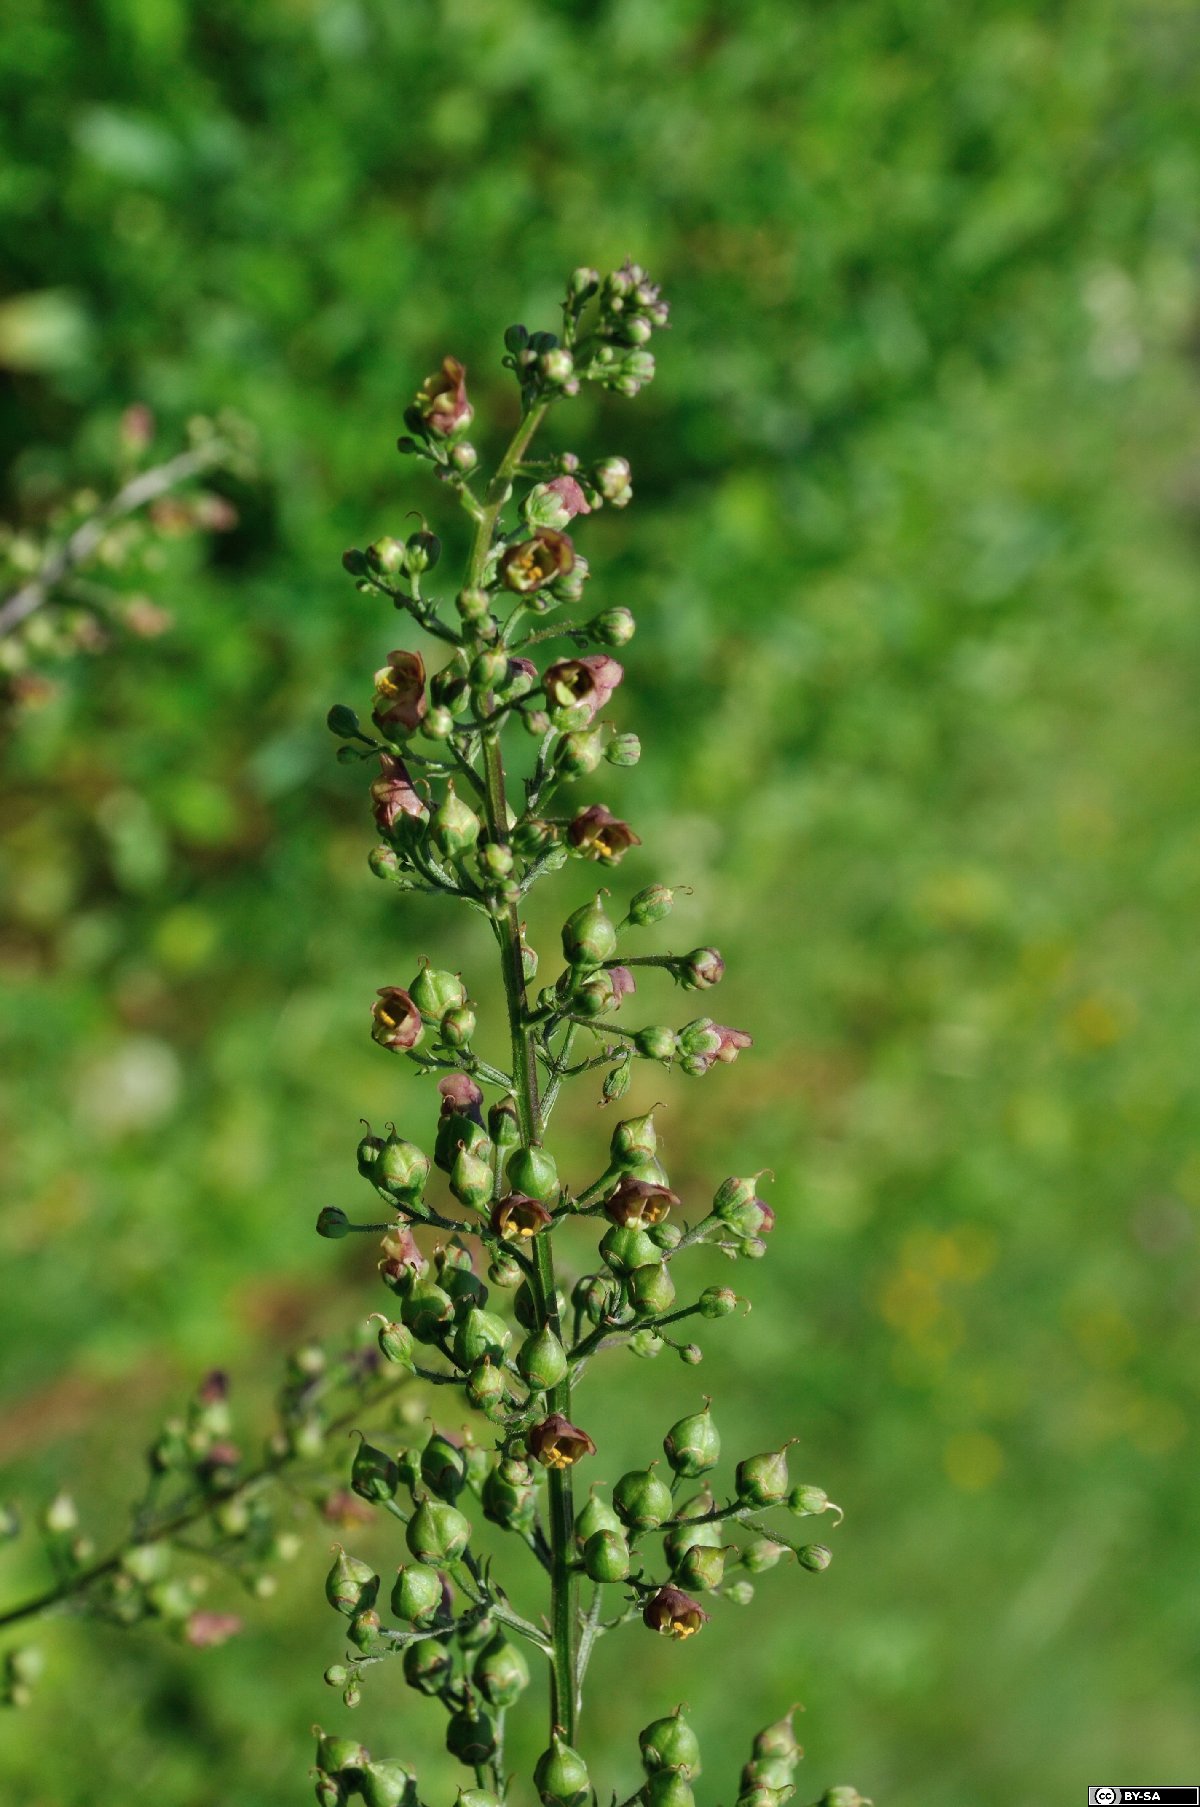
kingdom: Plantae
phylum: Tracheophyta
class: Magnoliopsida
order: Lamiales
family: Scrophulariaceae
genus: Scrophularia
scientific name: Scrophularia umbrosa
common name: Green figwort
